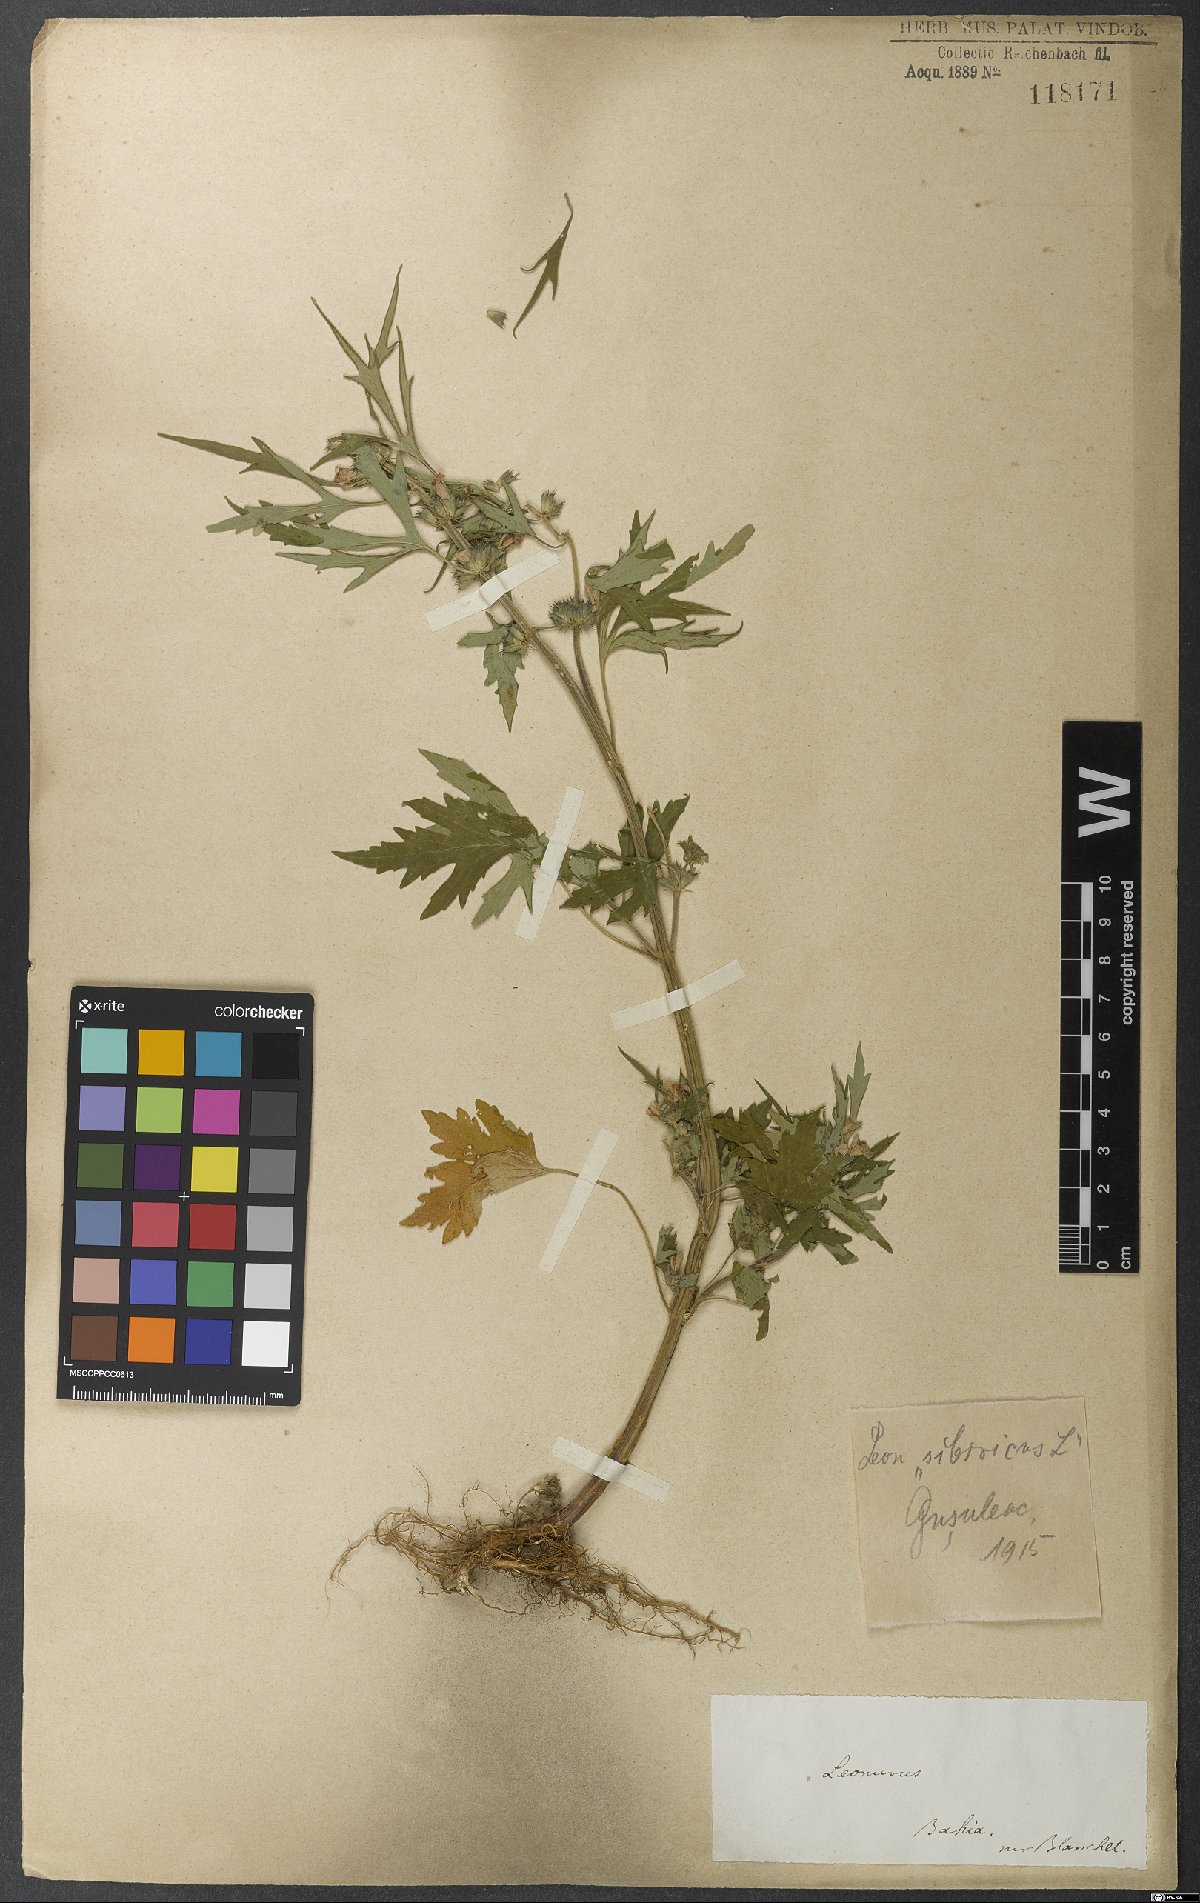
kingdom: Plantae
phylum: Tracheophyta
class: Magnoliopsida
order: Lamiales
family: Lamiaceae
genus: Leonurus
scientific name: Leonurus sibiricus
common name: Honeyweed
